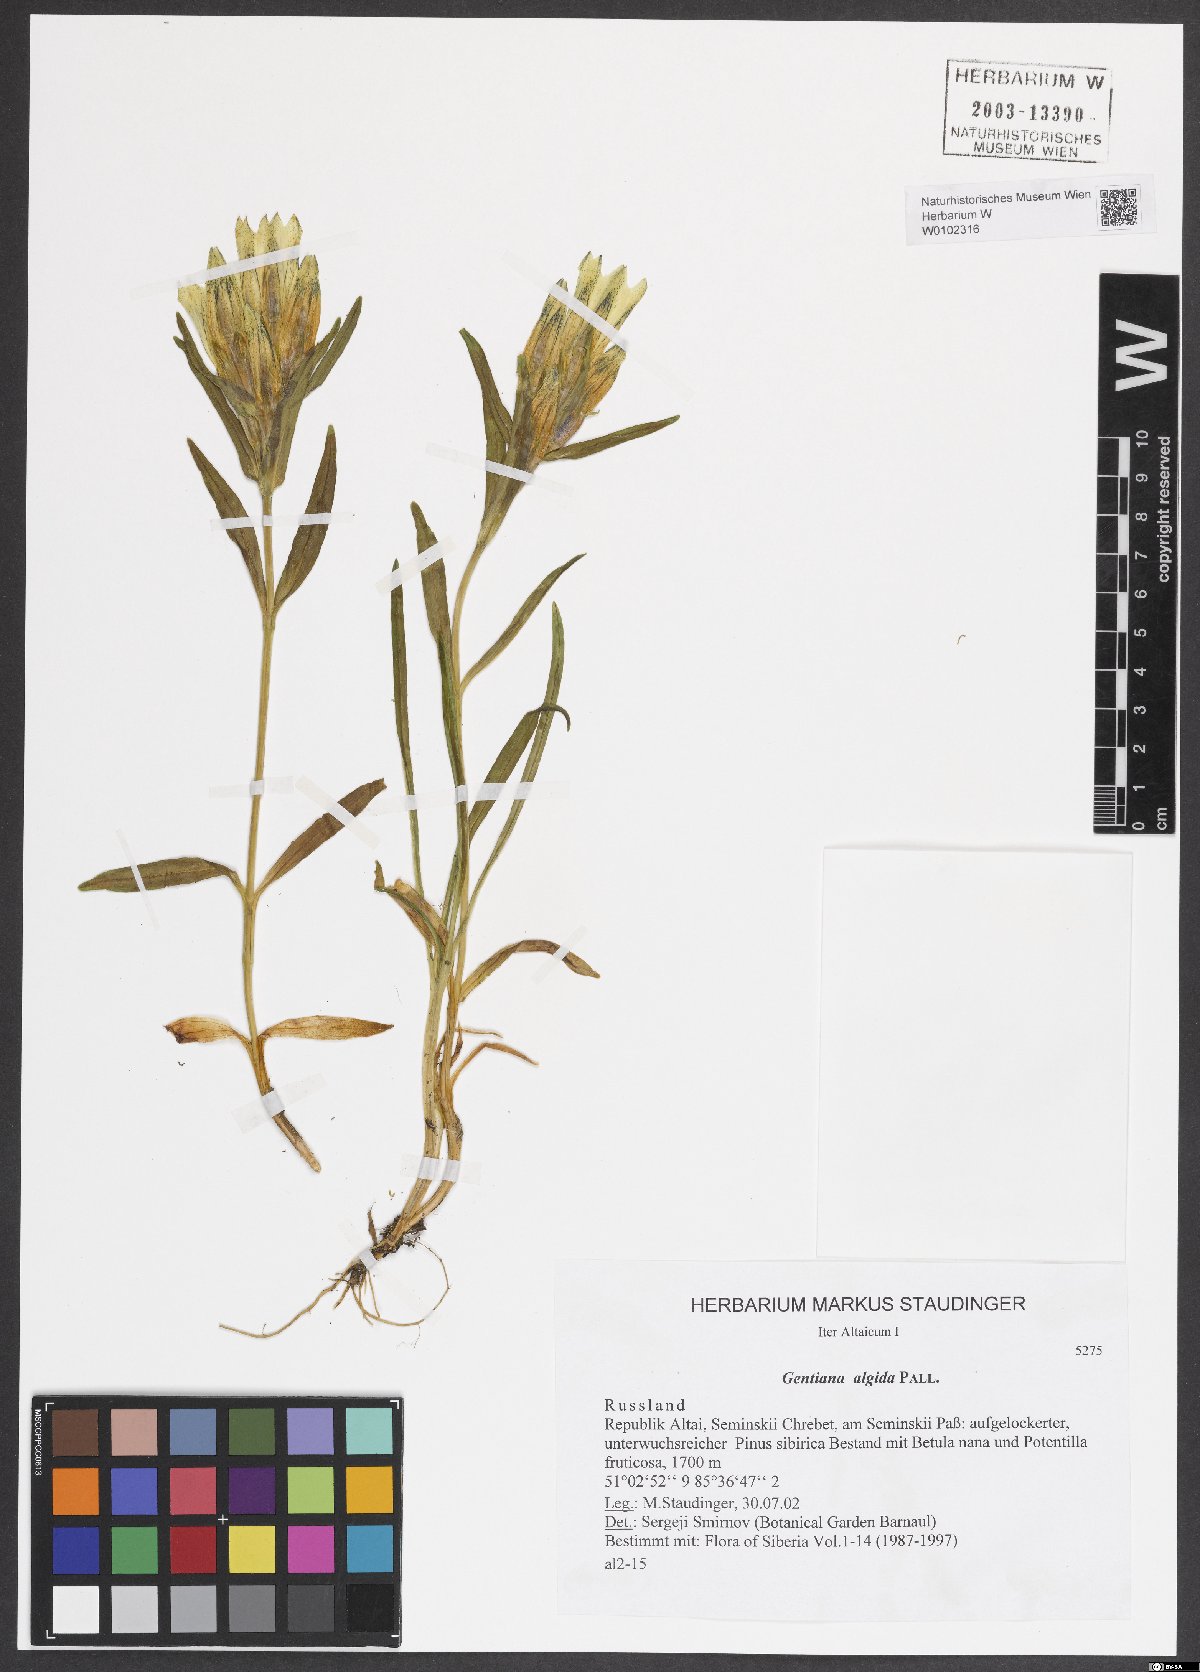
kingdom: Plantae
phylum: Tracheophyta
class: Magnoliopsida
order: Gentianales
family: Gentianaceae
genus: Gentiana
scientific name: Gentiana algida
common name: Arctic gentian
